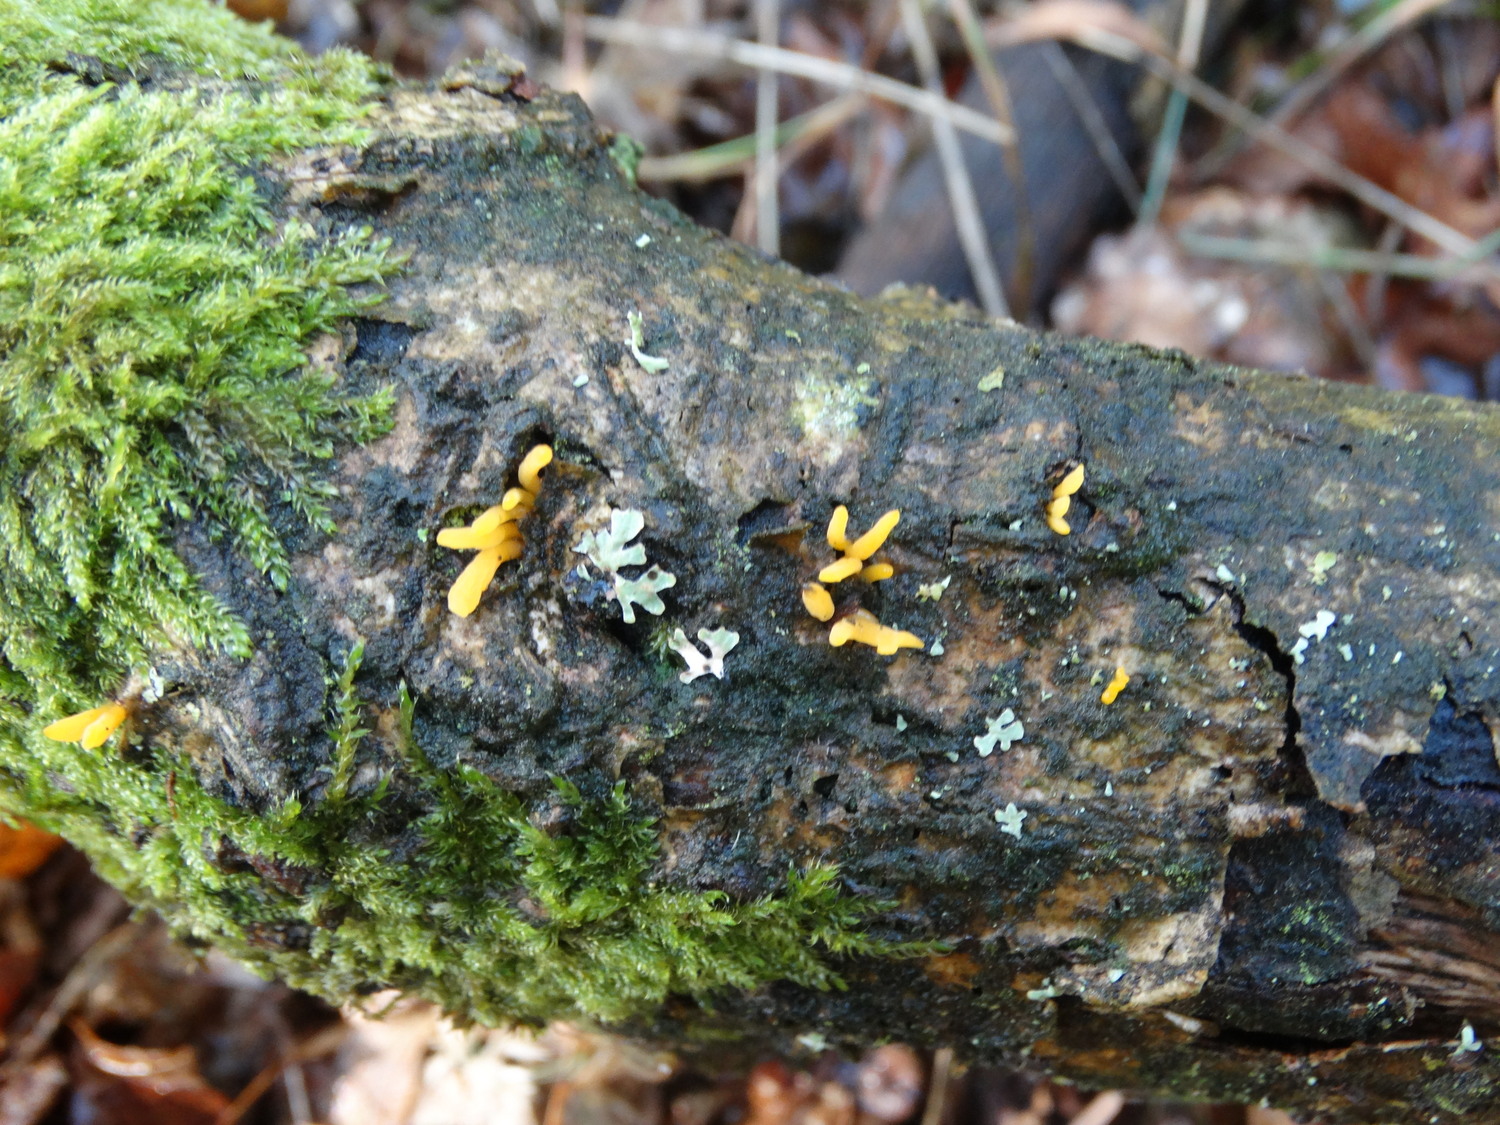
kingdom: Fungi
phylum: Basidiomycota
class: Dacrymycetes
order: Dacrymycetales
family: Dacrymycetaceae
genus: Calocera
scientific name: Calocera cornea
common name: liden guldgaffel
